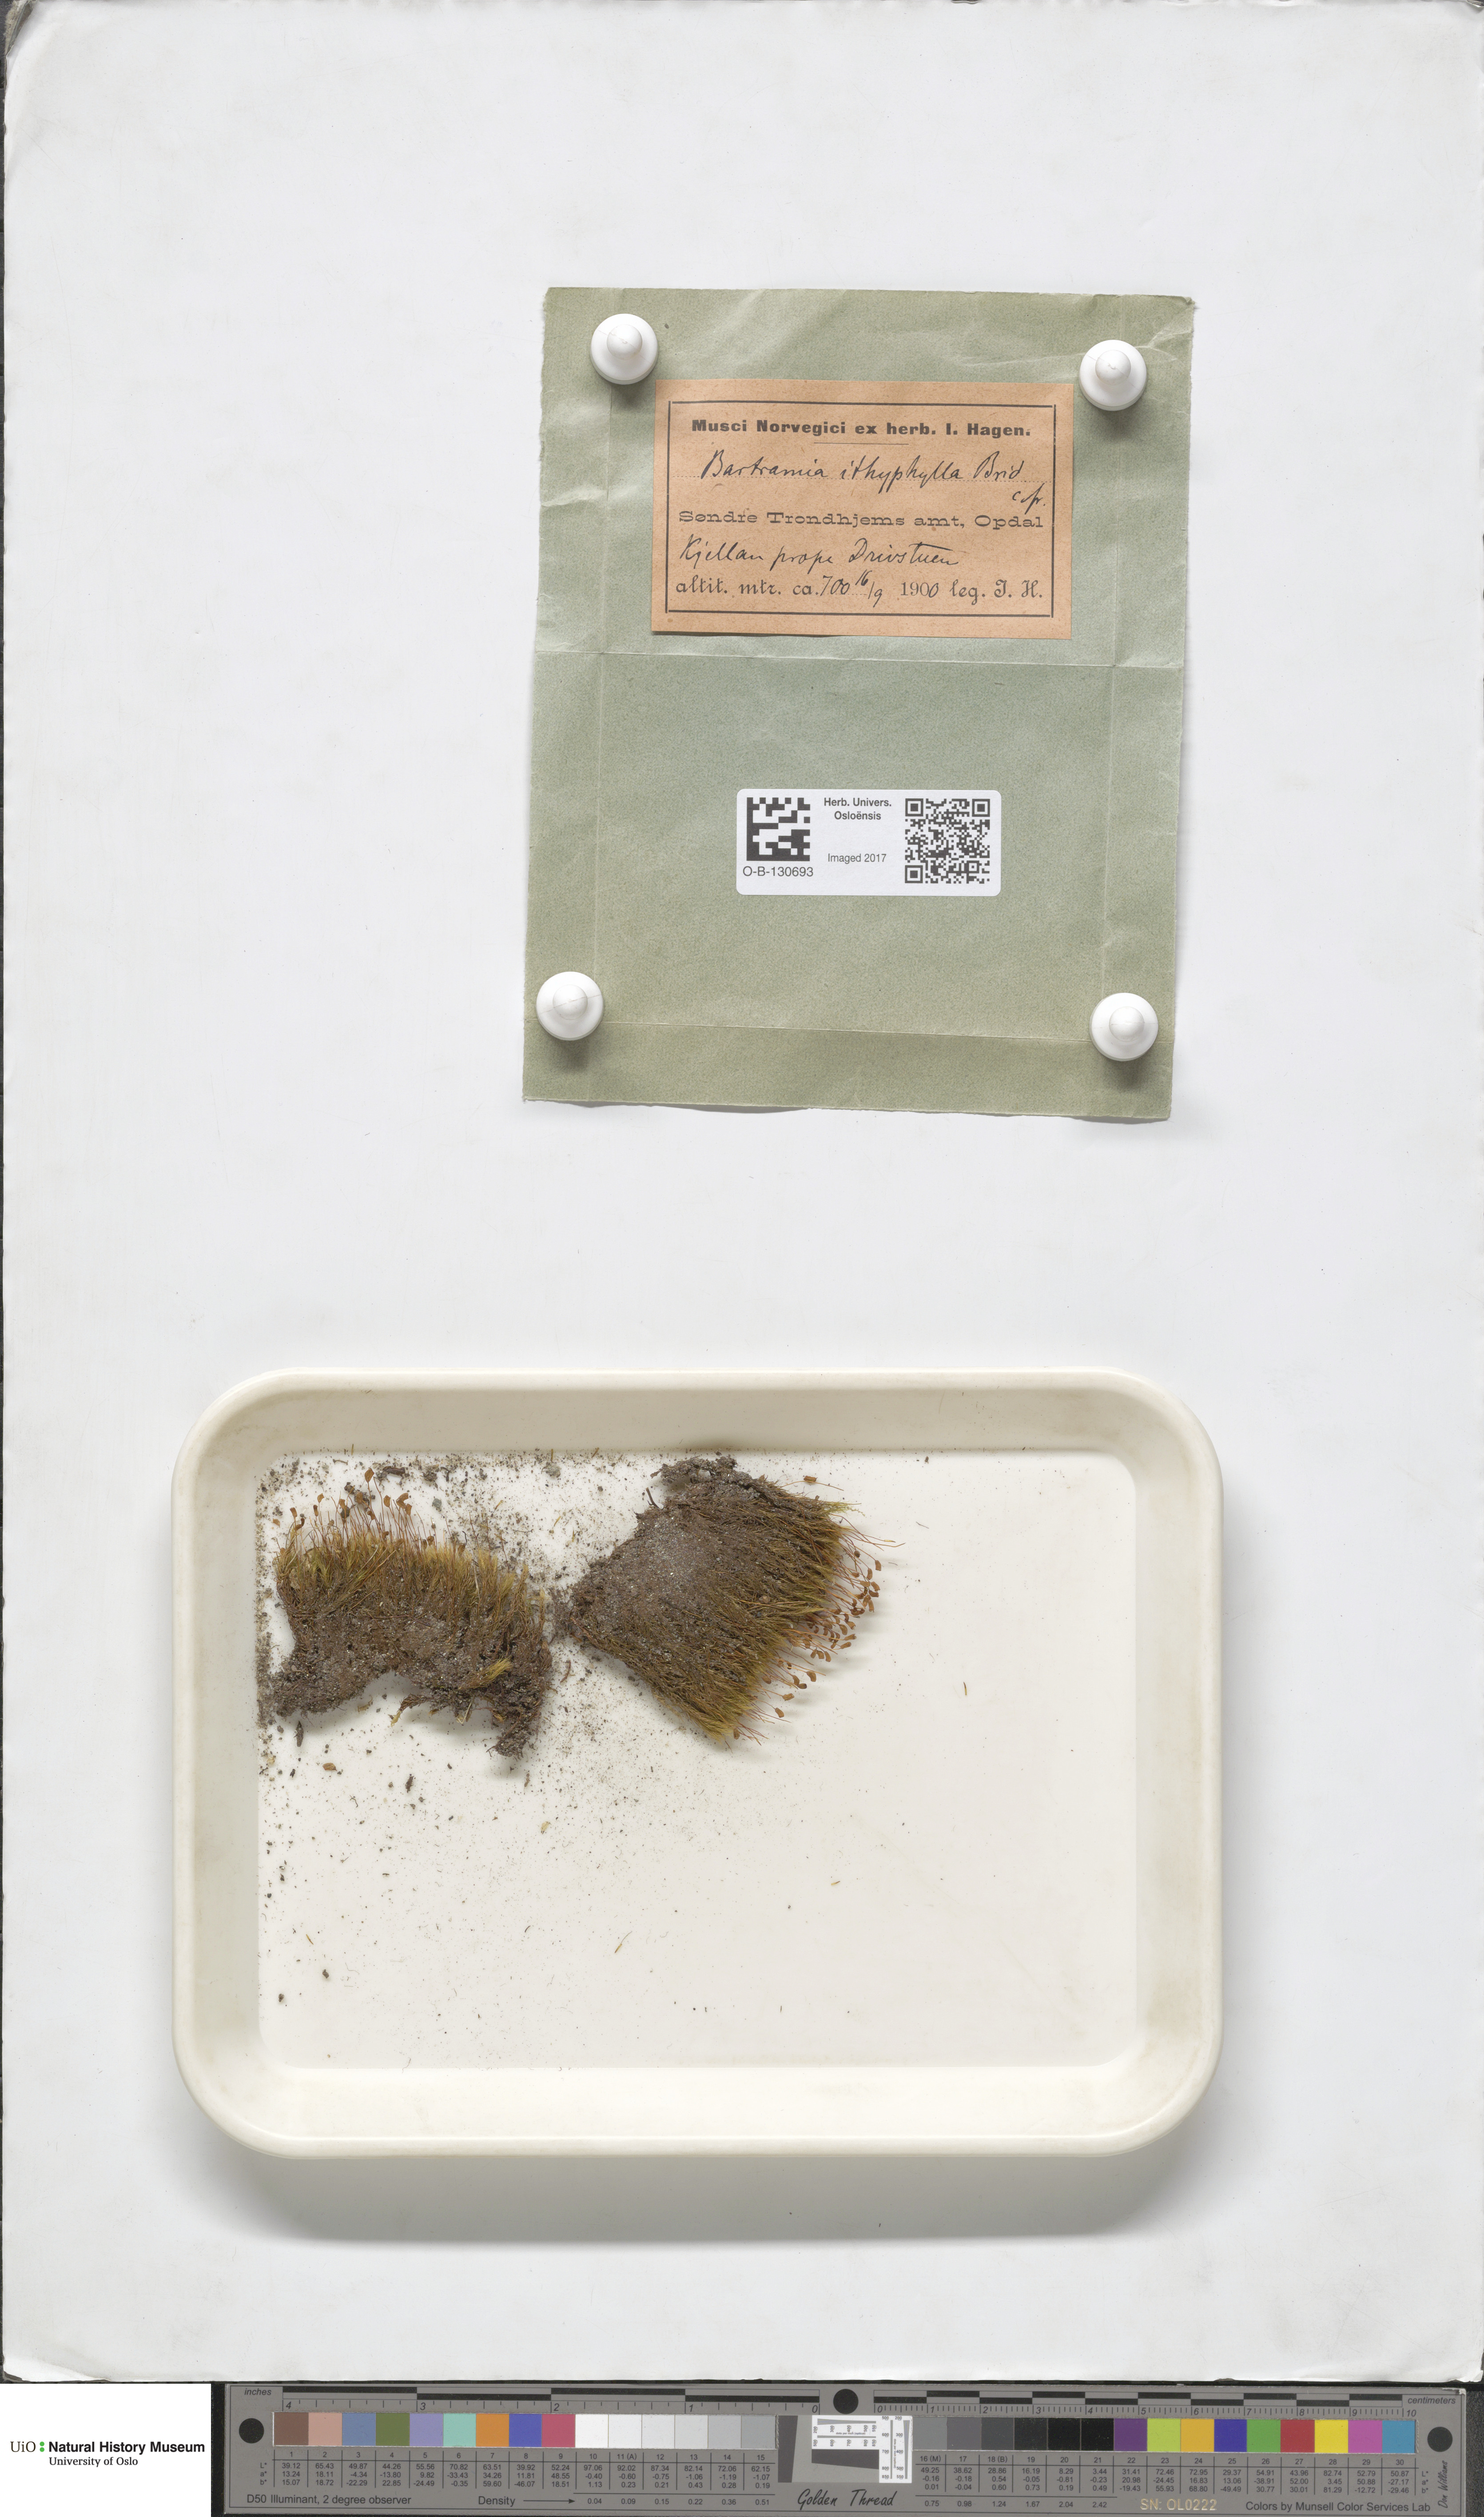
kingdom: Plantae
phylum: Bryophyta
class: Bryopsida
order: Bartramiales
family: Bartramiaceae
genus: Bartramia
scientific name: Bartramia ithyphylla
